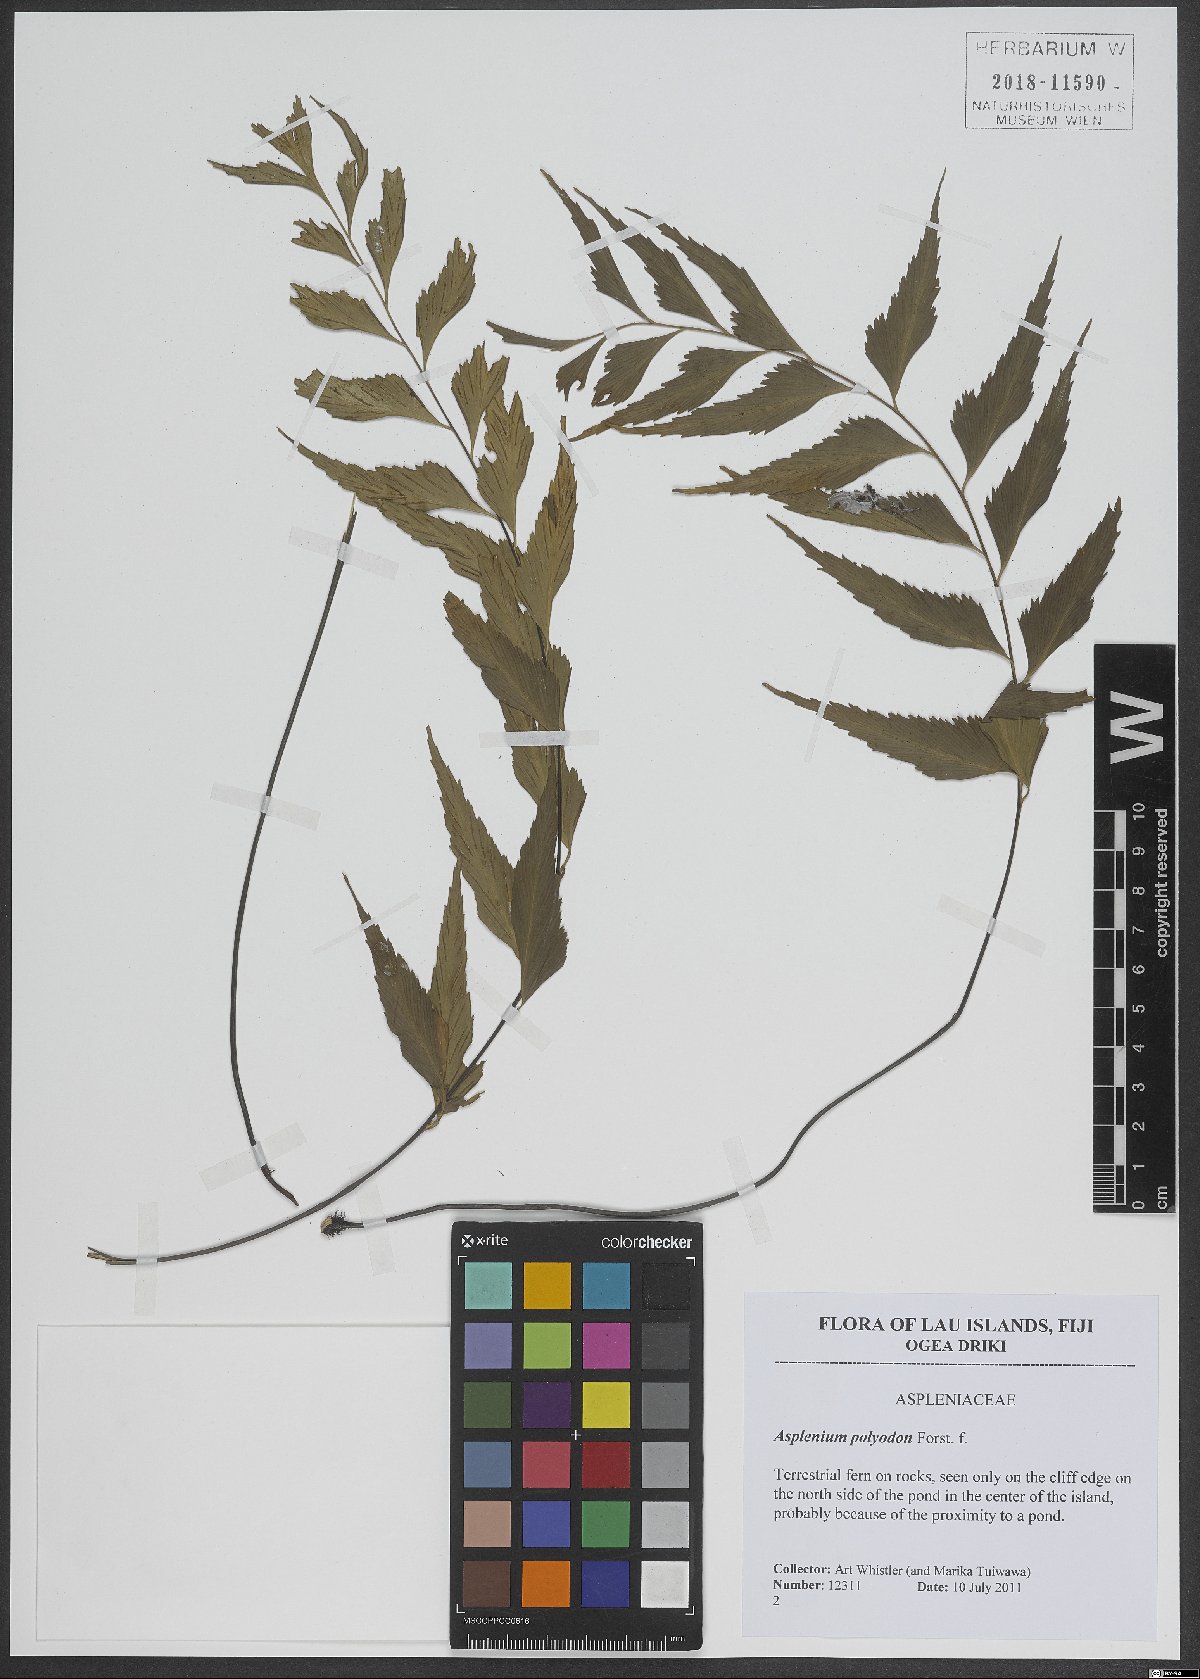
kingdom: Plantae
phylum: Tracheophyta
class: Polypodiopsida
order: Polypodiales
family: Aspleniaceae
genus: Asplenium
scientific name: Asplenium polyodon
